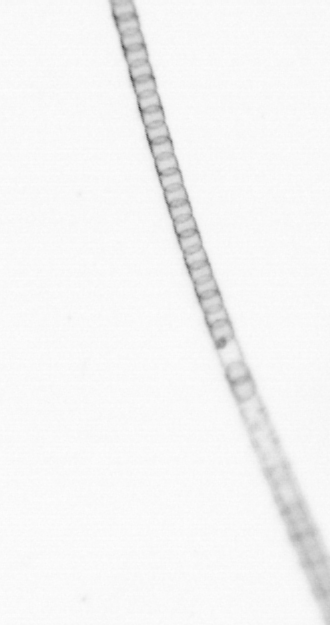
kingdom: Chromista
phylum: Ochrophyta
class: Bacillariophyceae
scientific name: Bacillariophyceae
